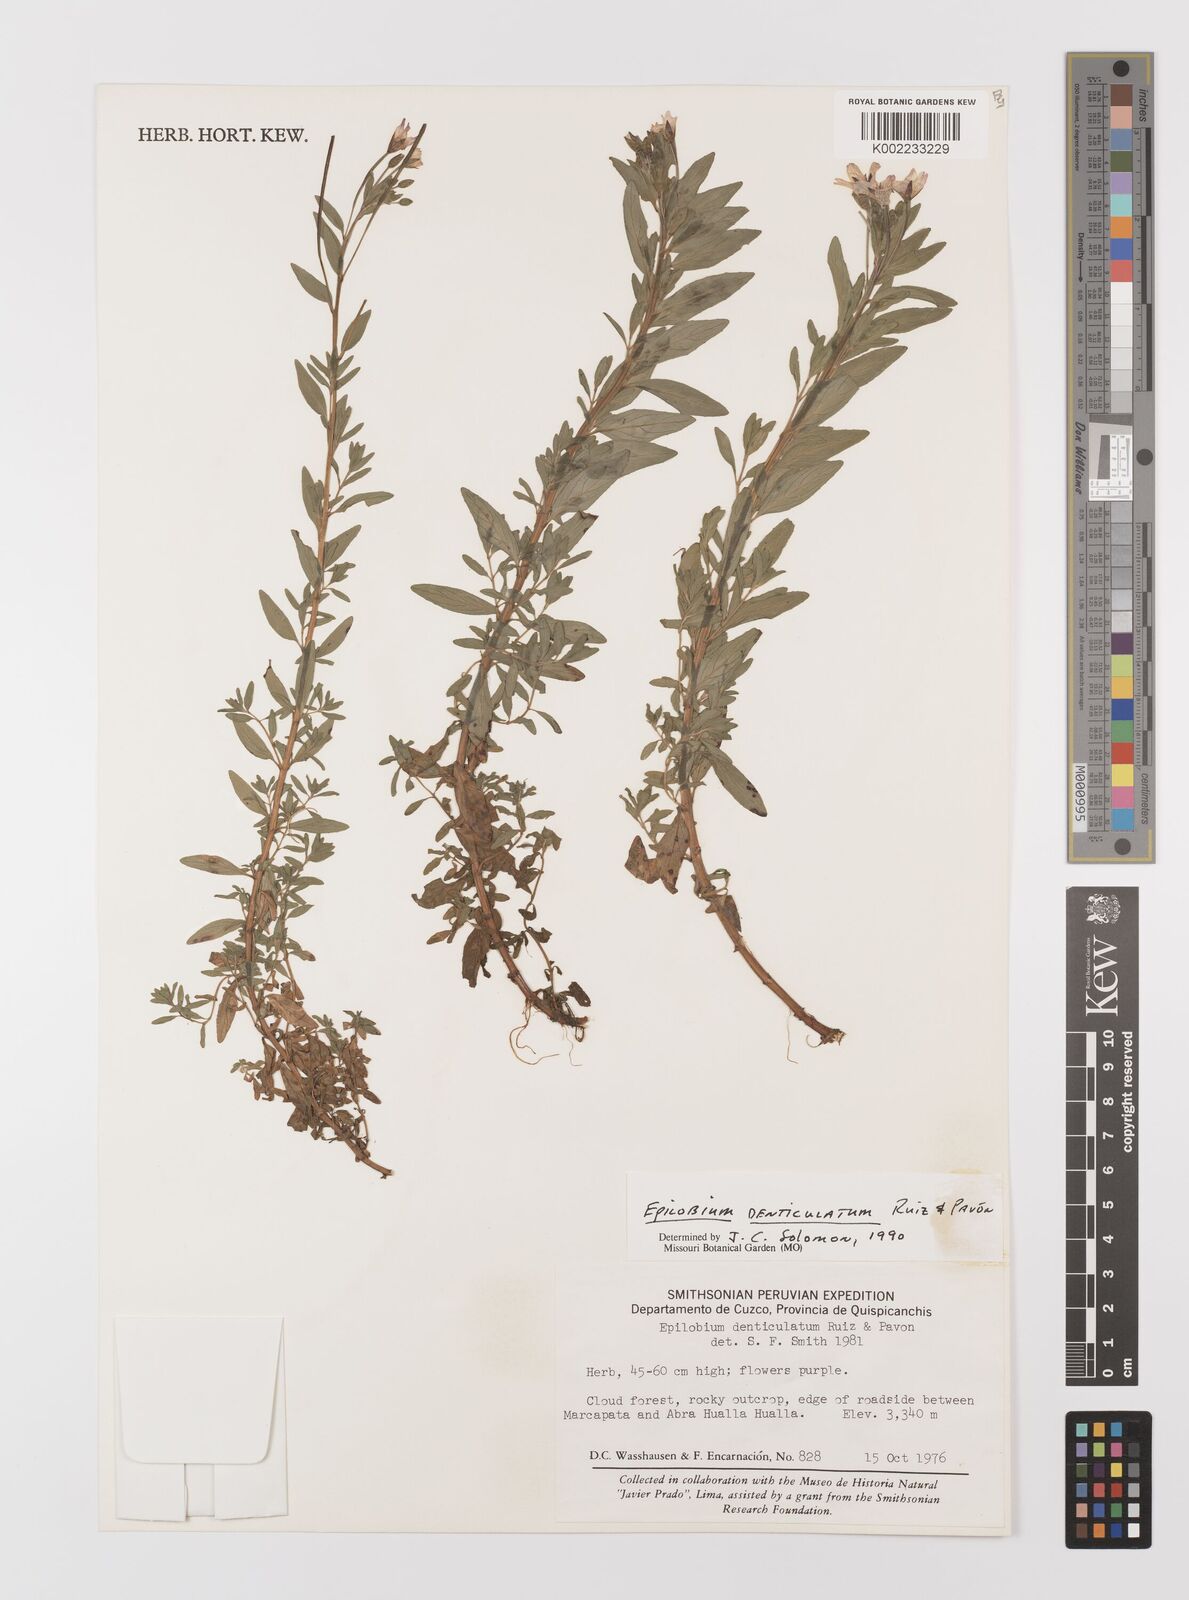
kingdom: Plantae
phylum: Tracheophyta
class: Magnoliopsida
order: Myrtales
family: Onagraceae
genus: Epilobium
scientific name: Epilobium denticulatum
